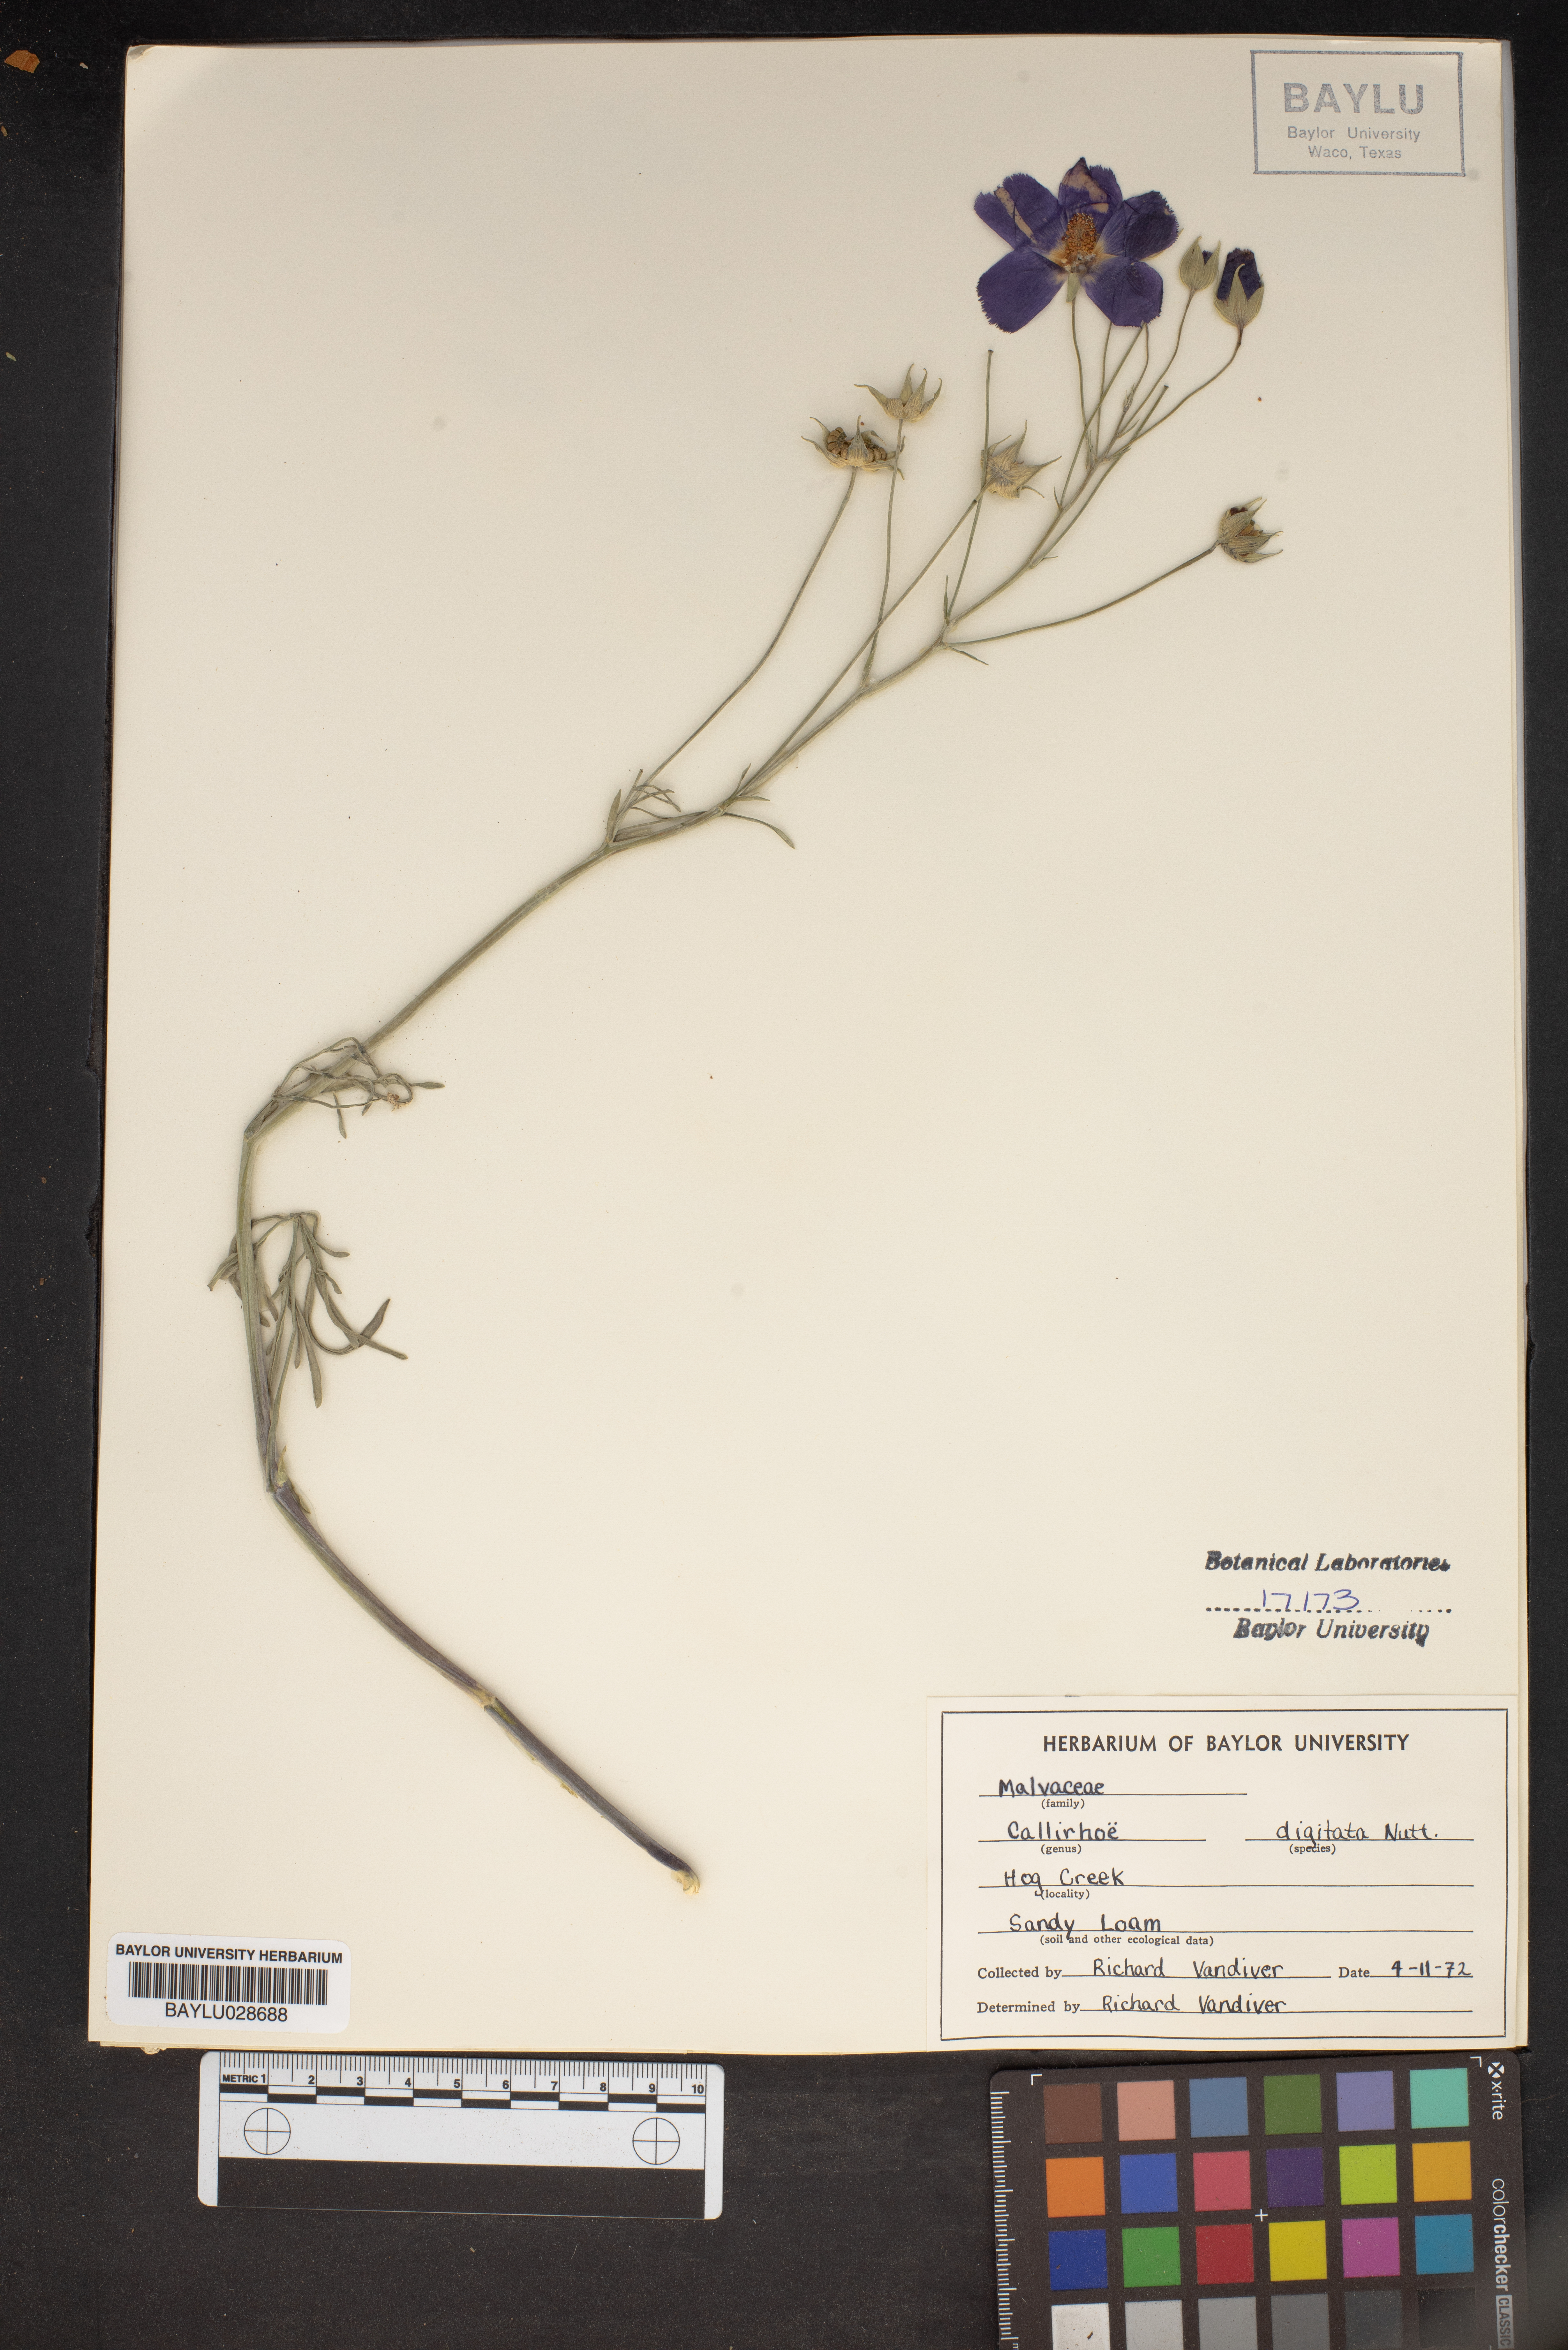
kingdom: Plantae
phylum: Tracheophyta
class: Magnoliopsida
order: Malvales
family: Malvaceae
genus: Callirhoe
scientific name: Callirhoe digitata
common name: Finger poppy-mallow
